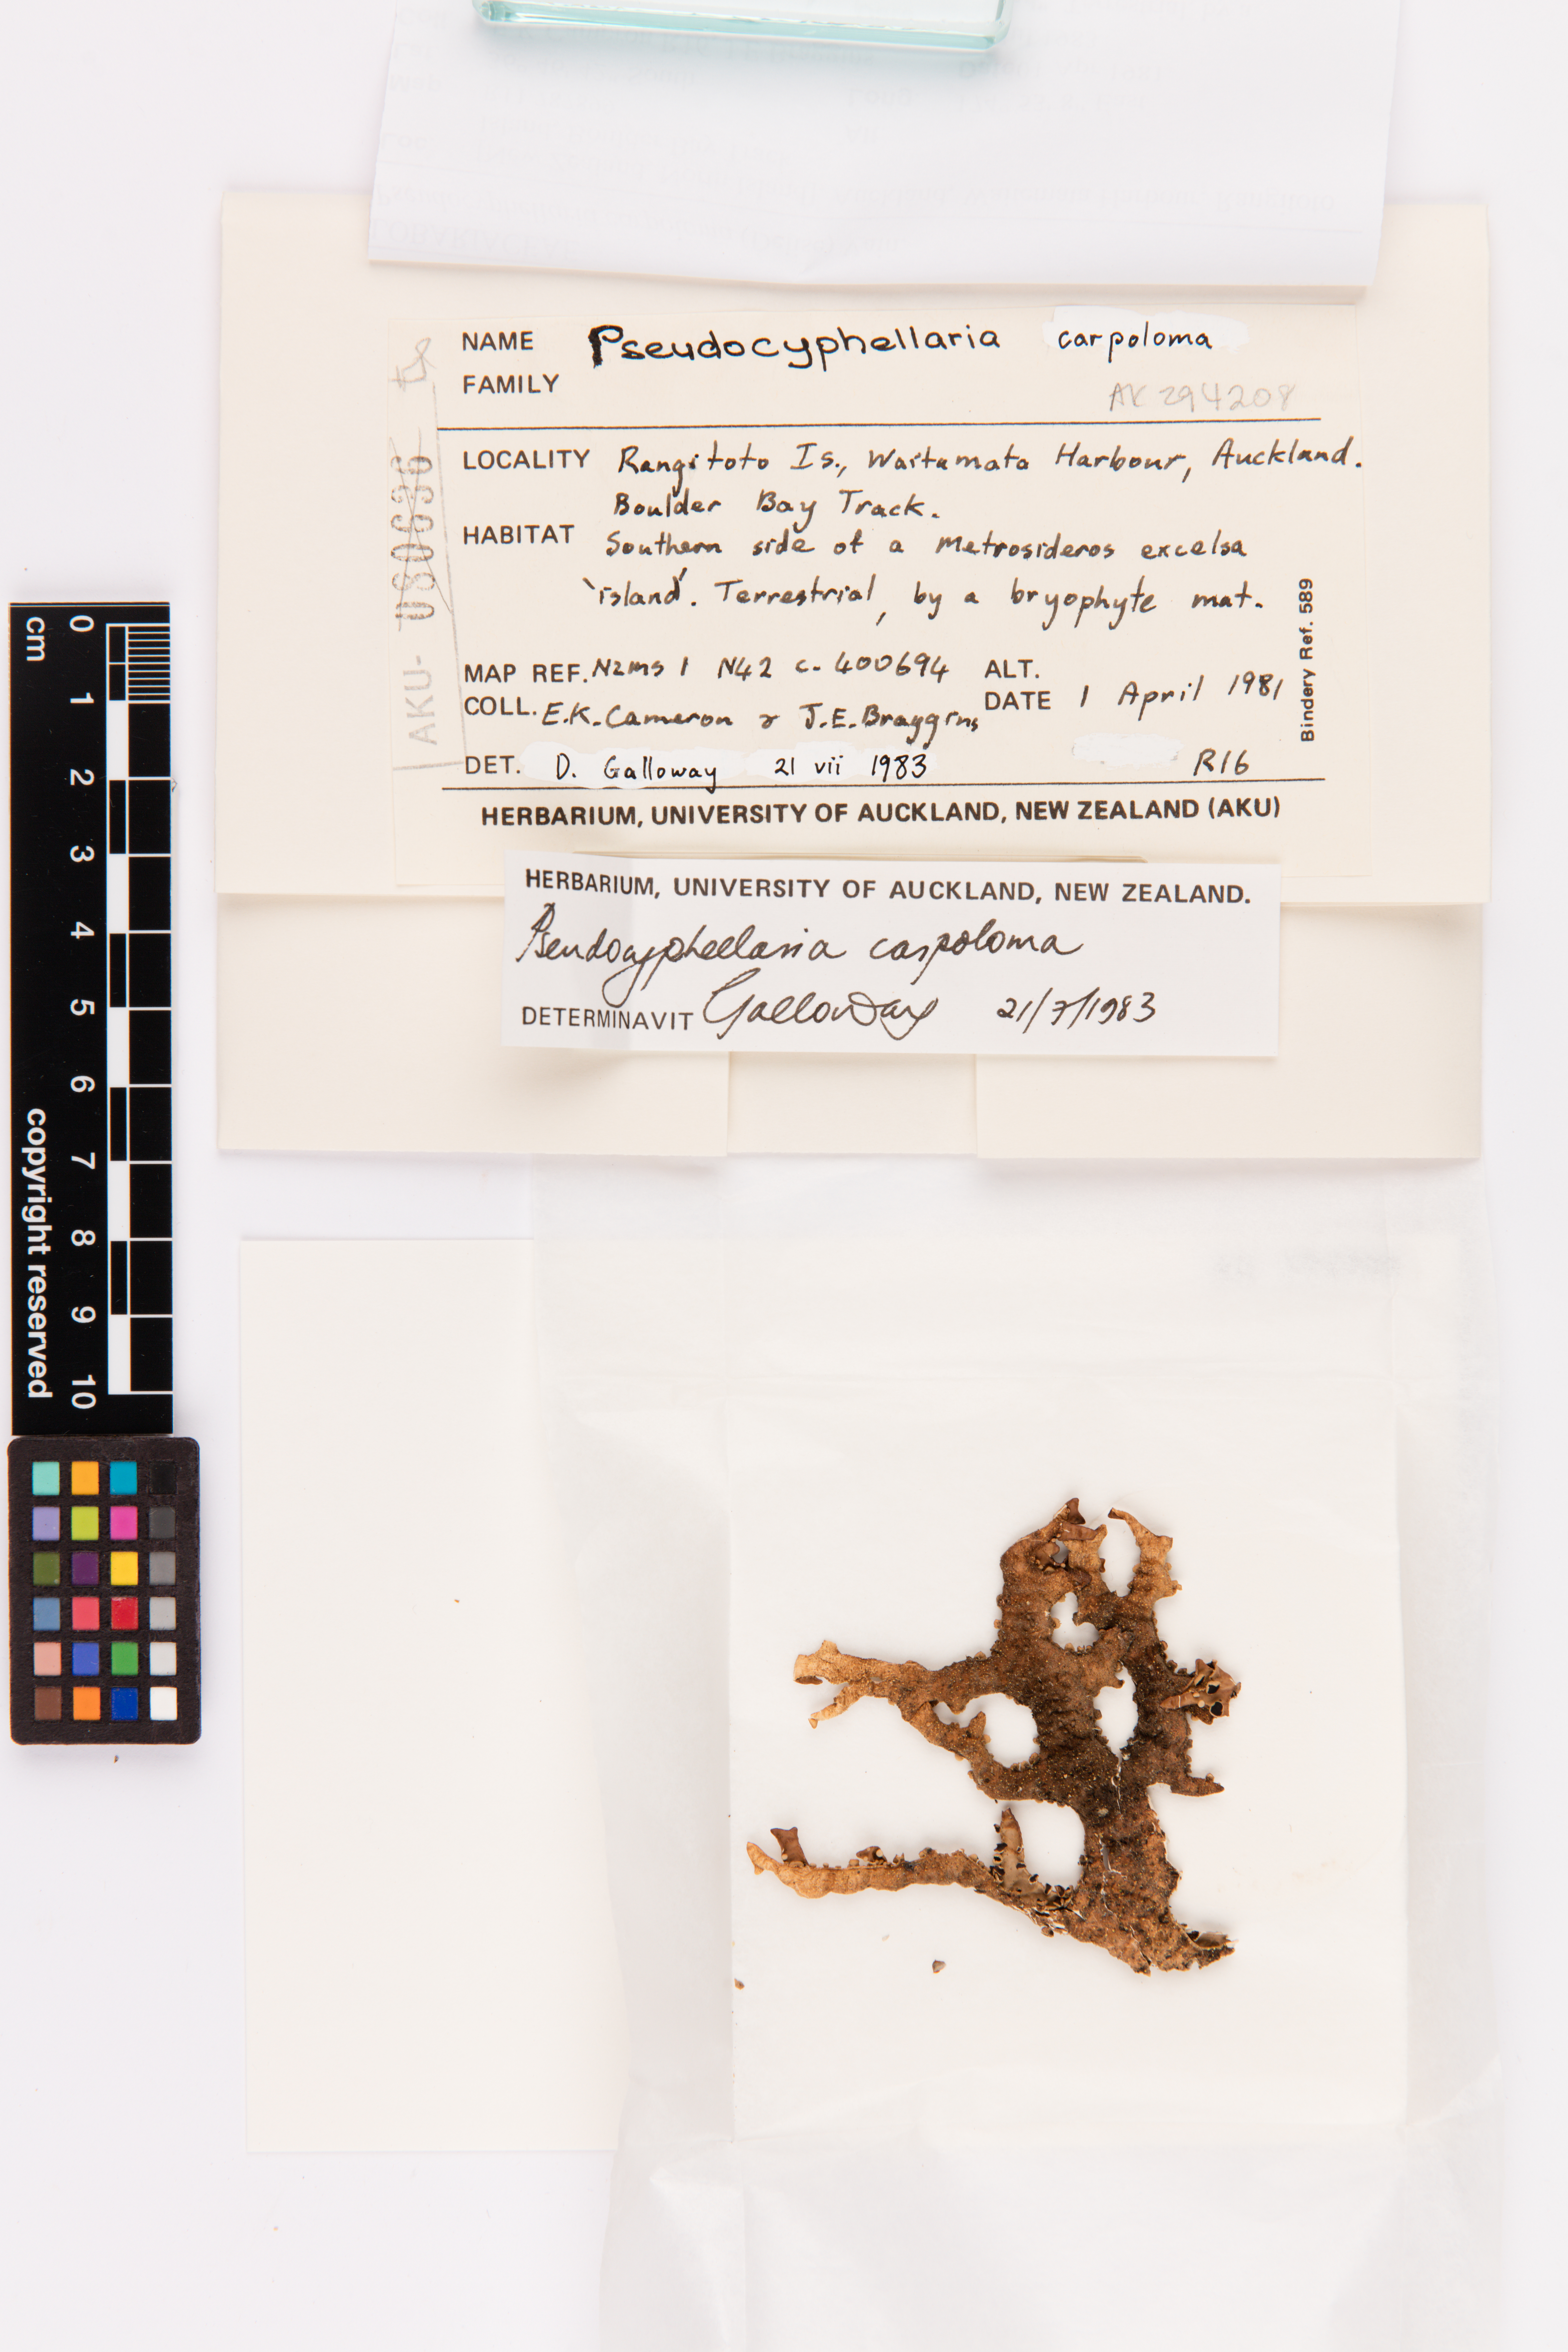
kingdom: Fungi
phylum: Ascomycota
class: Lecanoromycetes
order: Peltigerales
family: Lobariaceae
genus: Pseudocyphellaria
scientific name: Pseudocyphellaria carpoloma
